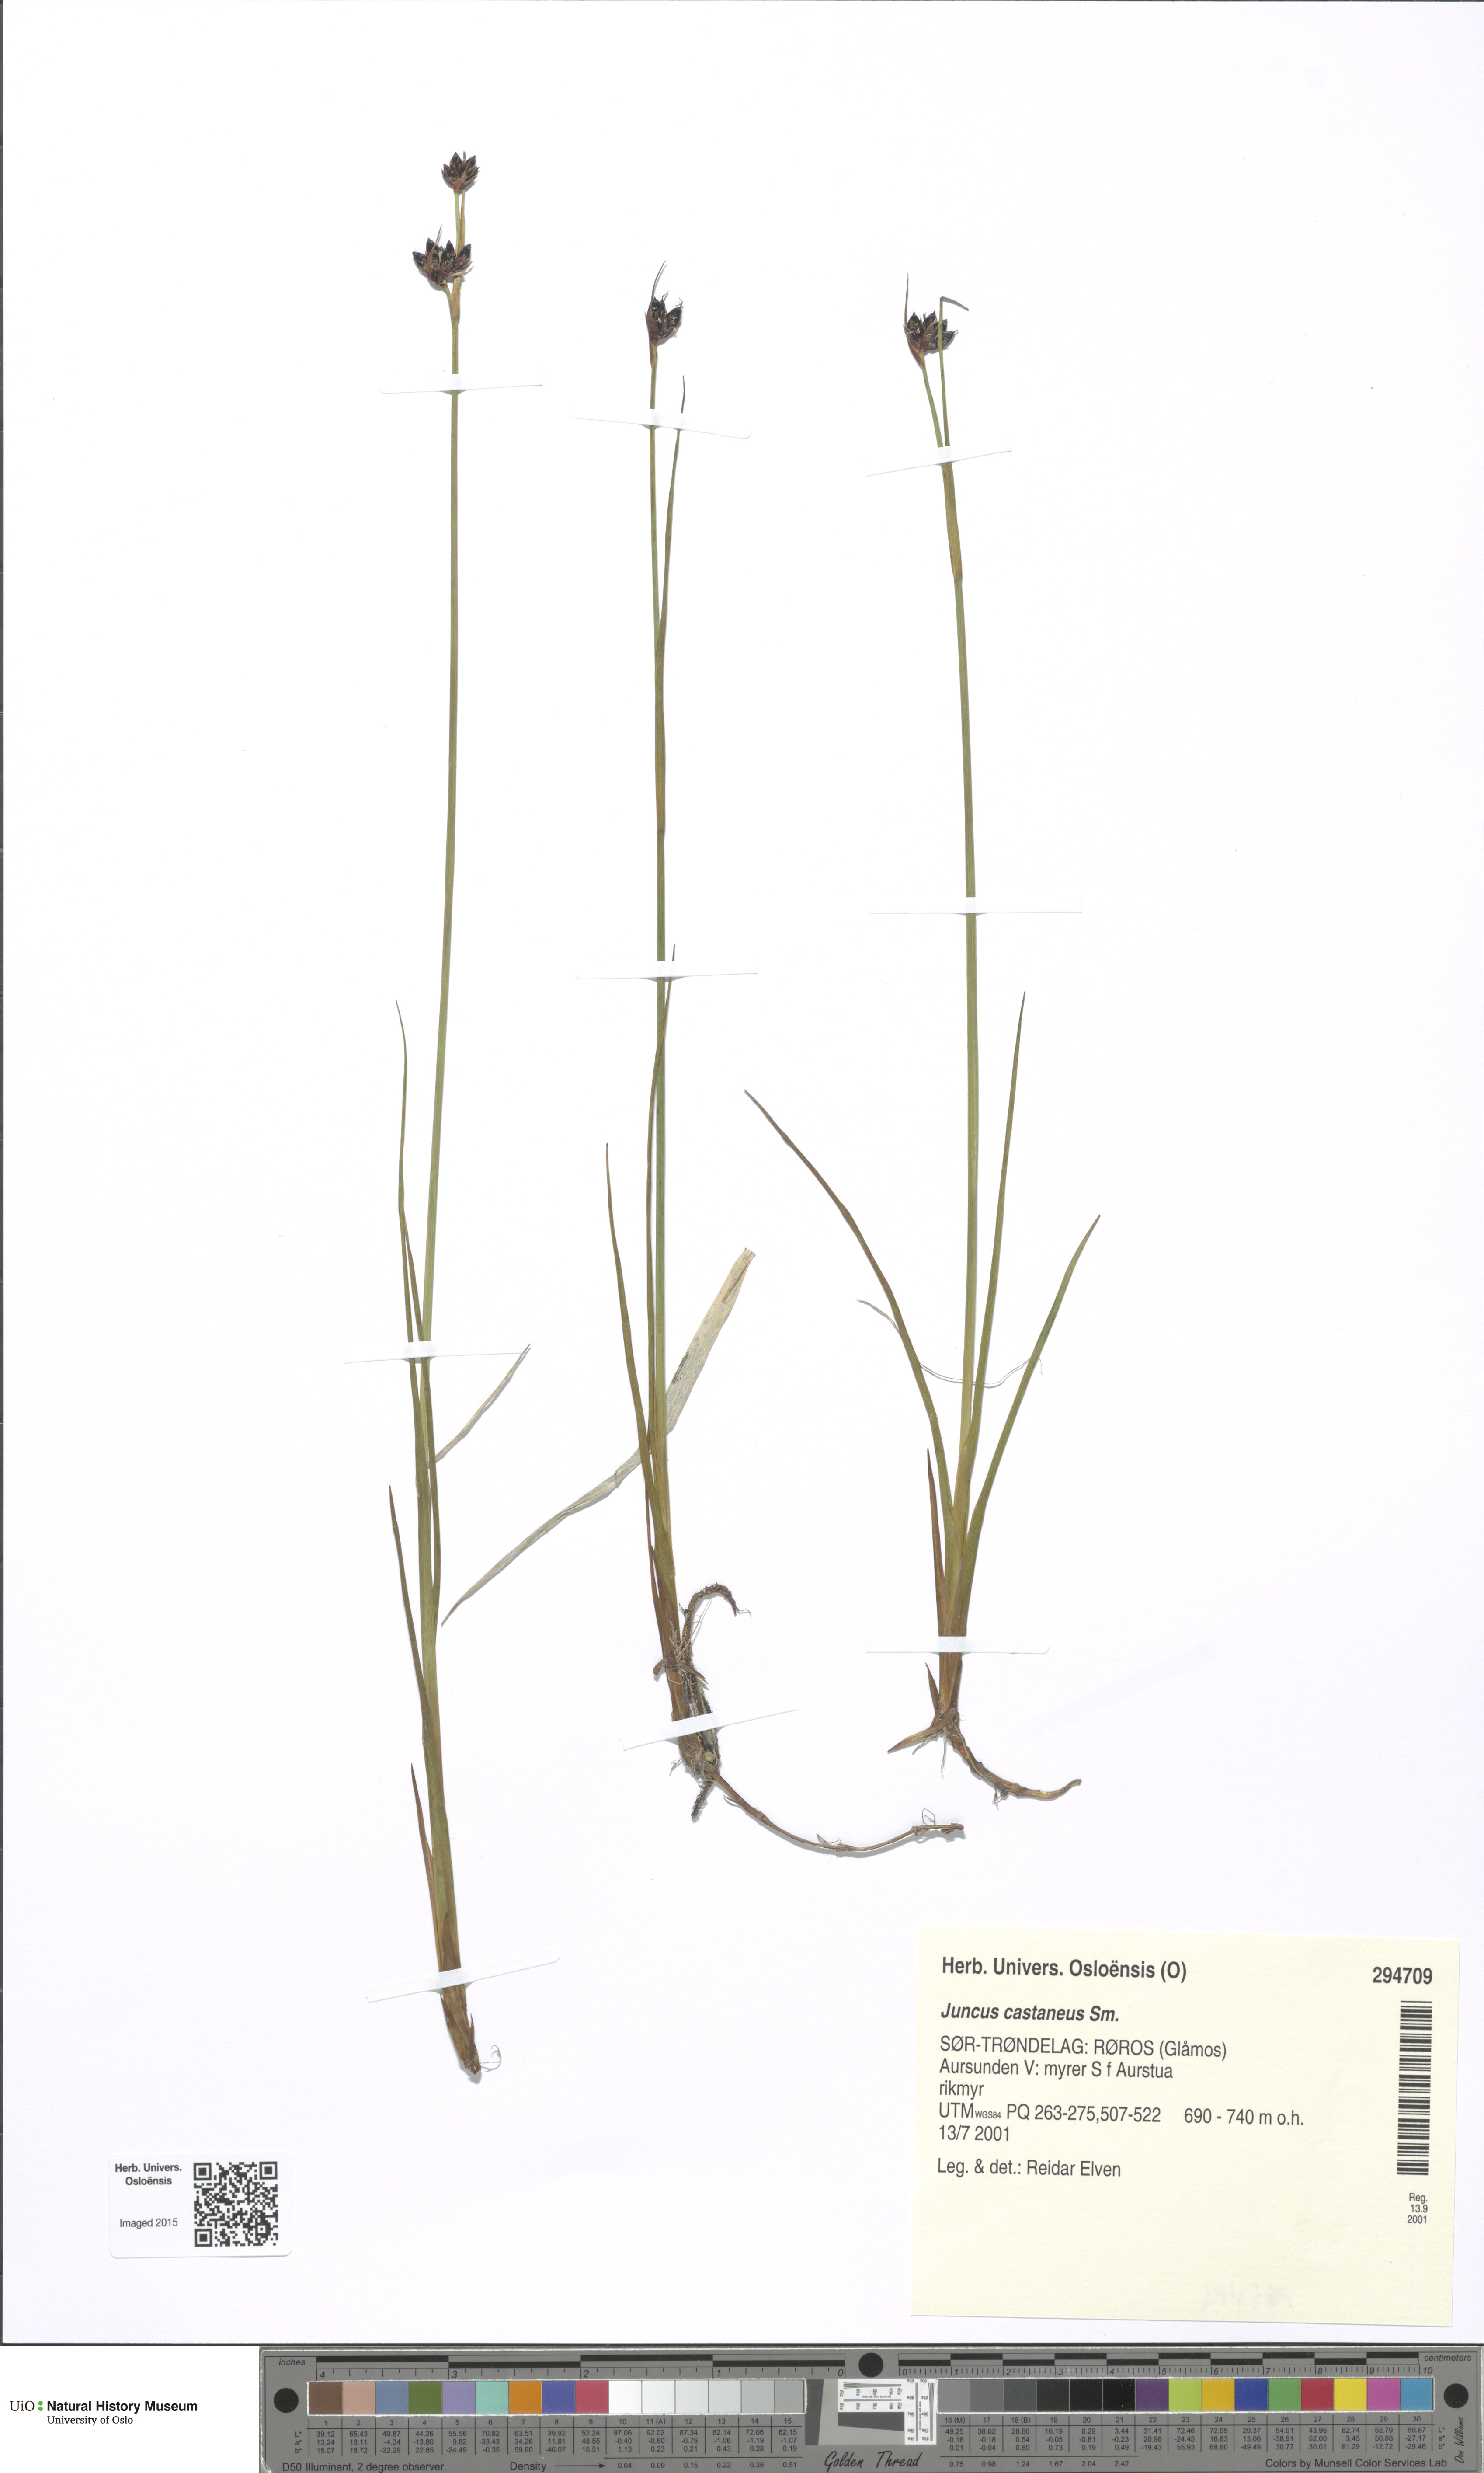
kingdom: Plantae
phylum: Tracheophyta
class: Liliopsida
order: Poales
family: Juncaceae
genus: Juncus
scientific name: Juncus castaneus
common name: Chestnut rush
